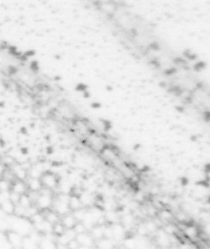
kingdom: Animalia
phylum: Chordata
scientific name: Chordata
